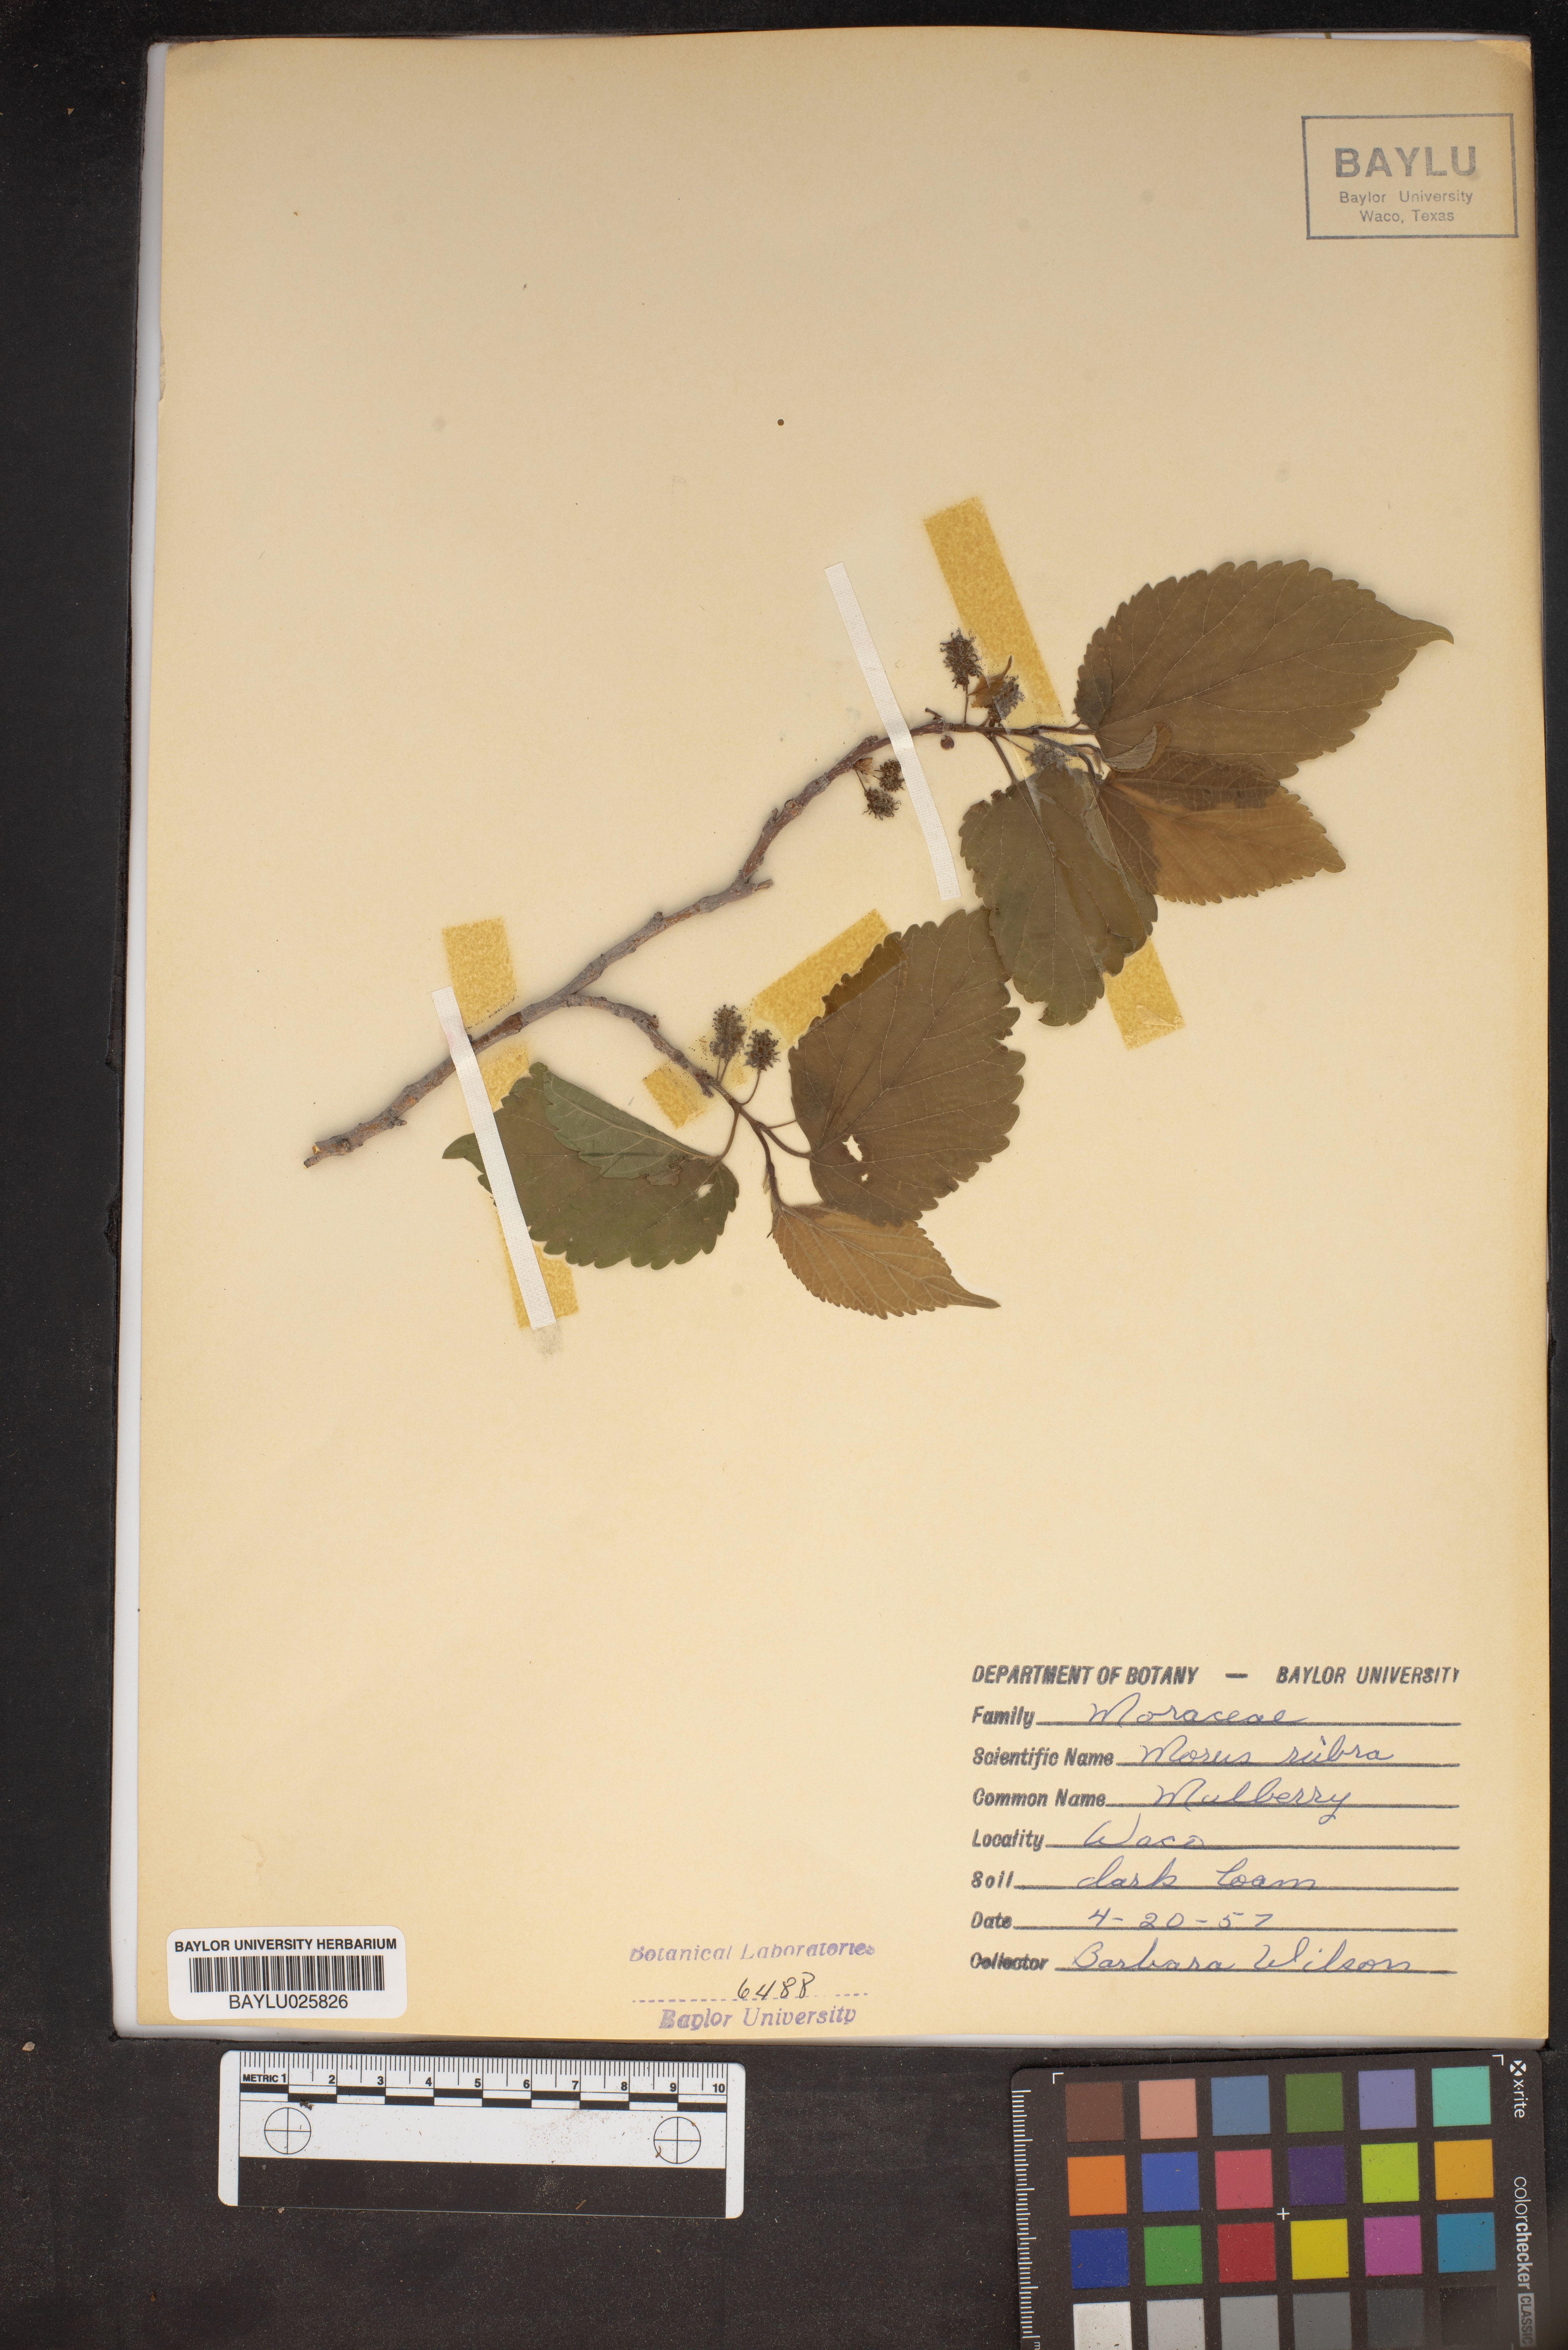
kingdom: Plantae
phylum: Tracheophyta
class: Magnoliopsida
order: Rosales
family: Moraceae
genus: Morus
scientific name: Morus rubra
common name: Red mulberry
